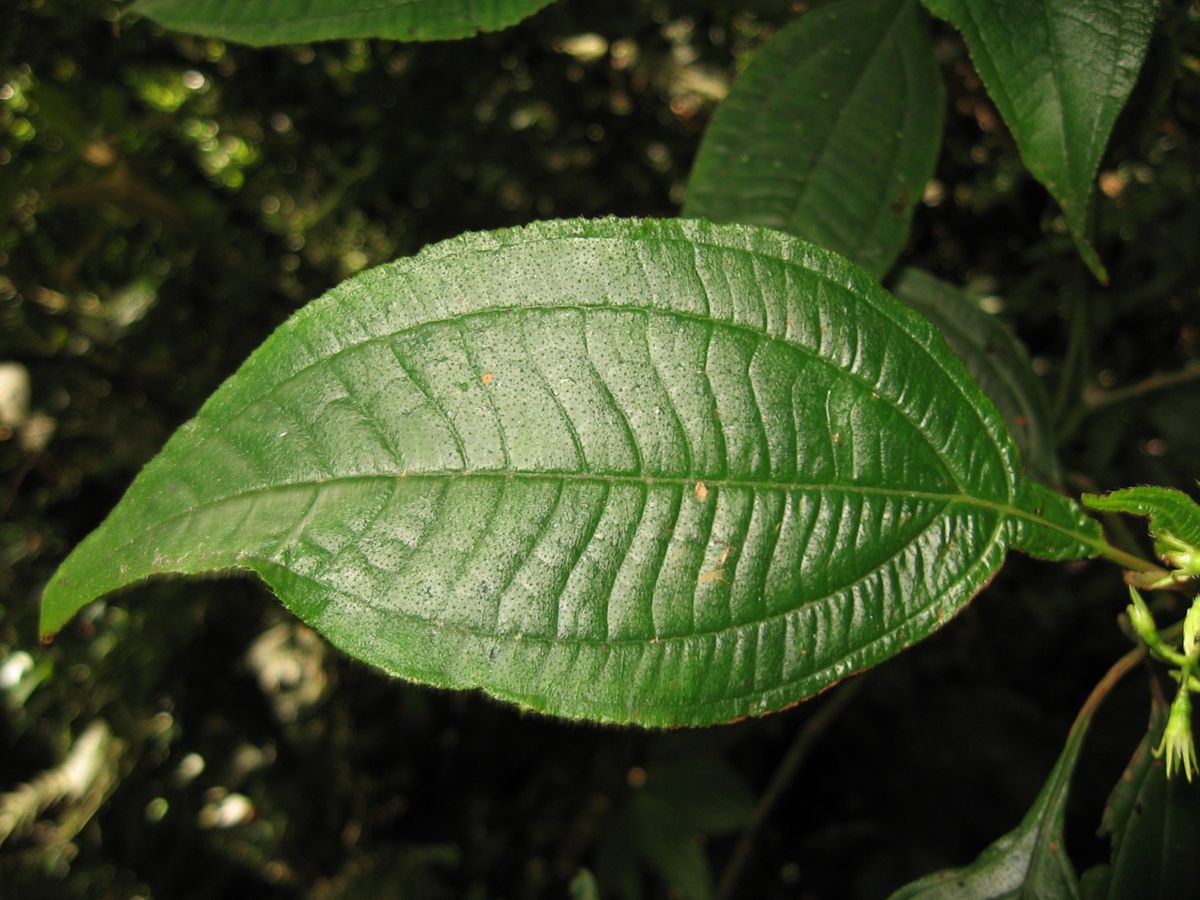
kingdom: Plantae
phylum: Tracheophyta
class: Magnoliopsida
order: Myrtales
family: Melastomataceae
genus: Miconia
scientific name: Miconia oocarpa
